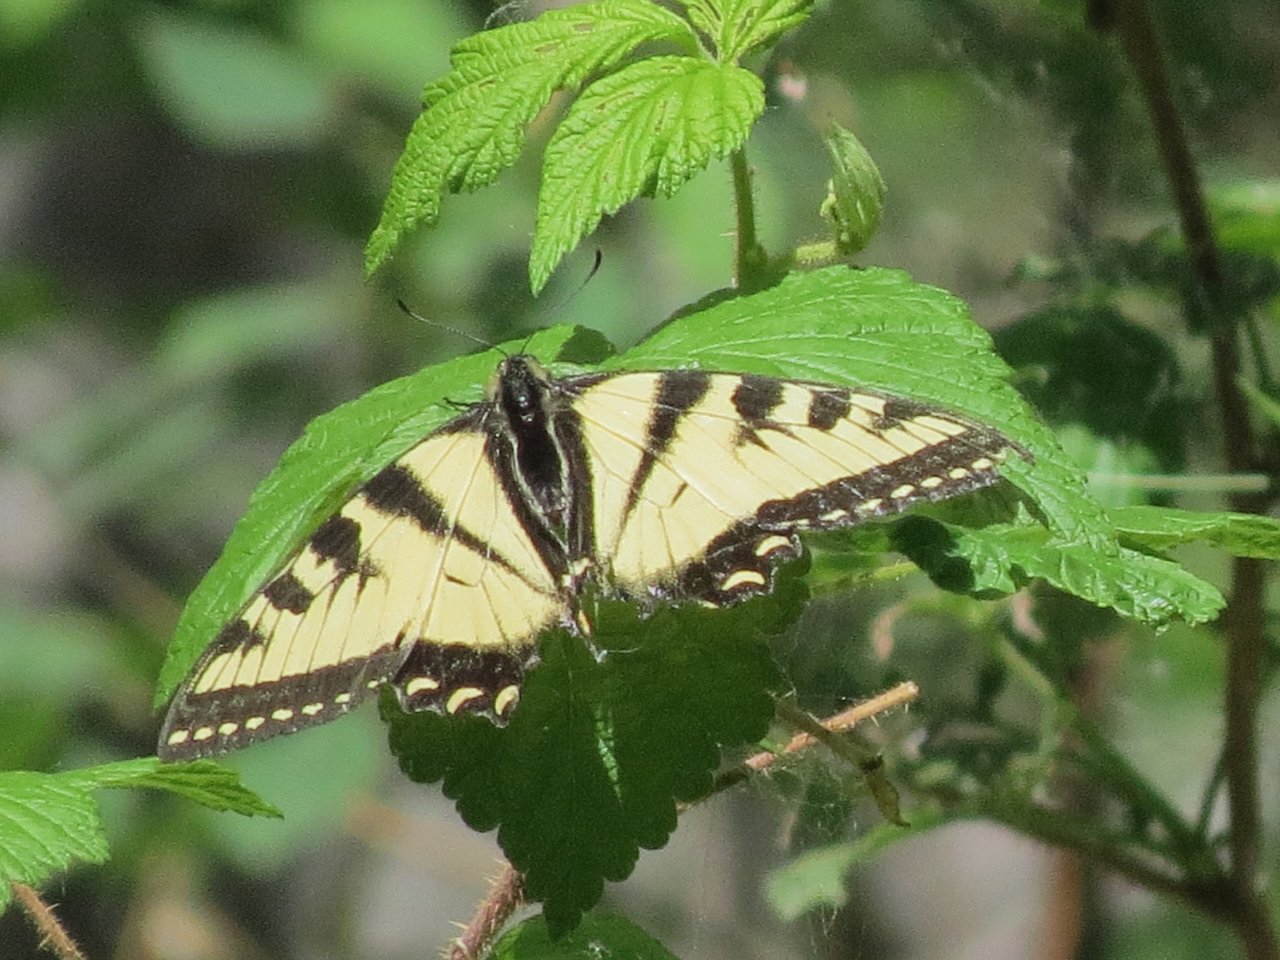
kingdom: Animalia
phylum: Arthropoda
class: Insecta
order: Lepidoptera
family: Papilionidae
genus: Pterourus
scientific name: Pterourus canadensis
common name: Canadian Tiger Swallowtail
